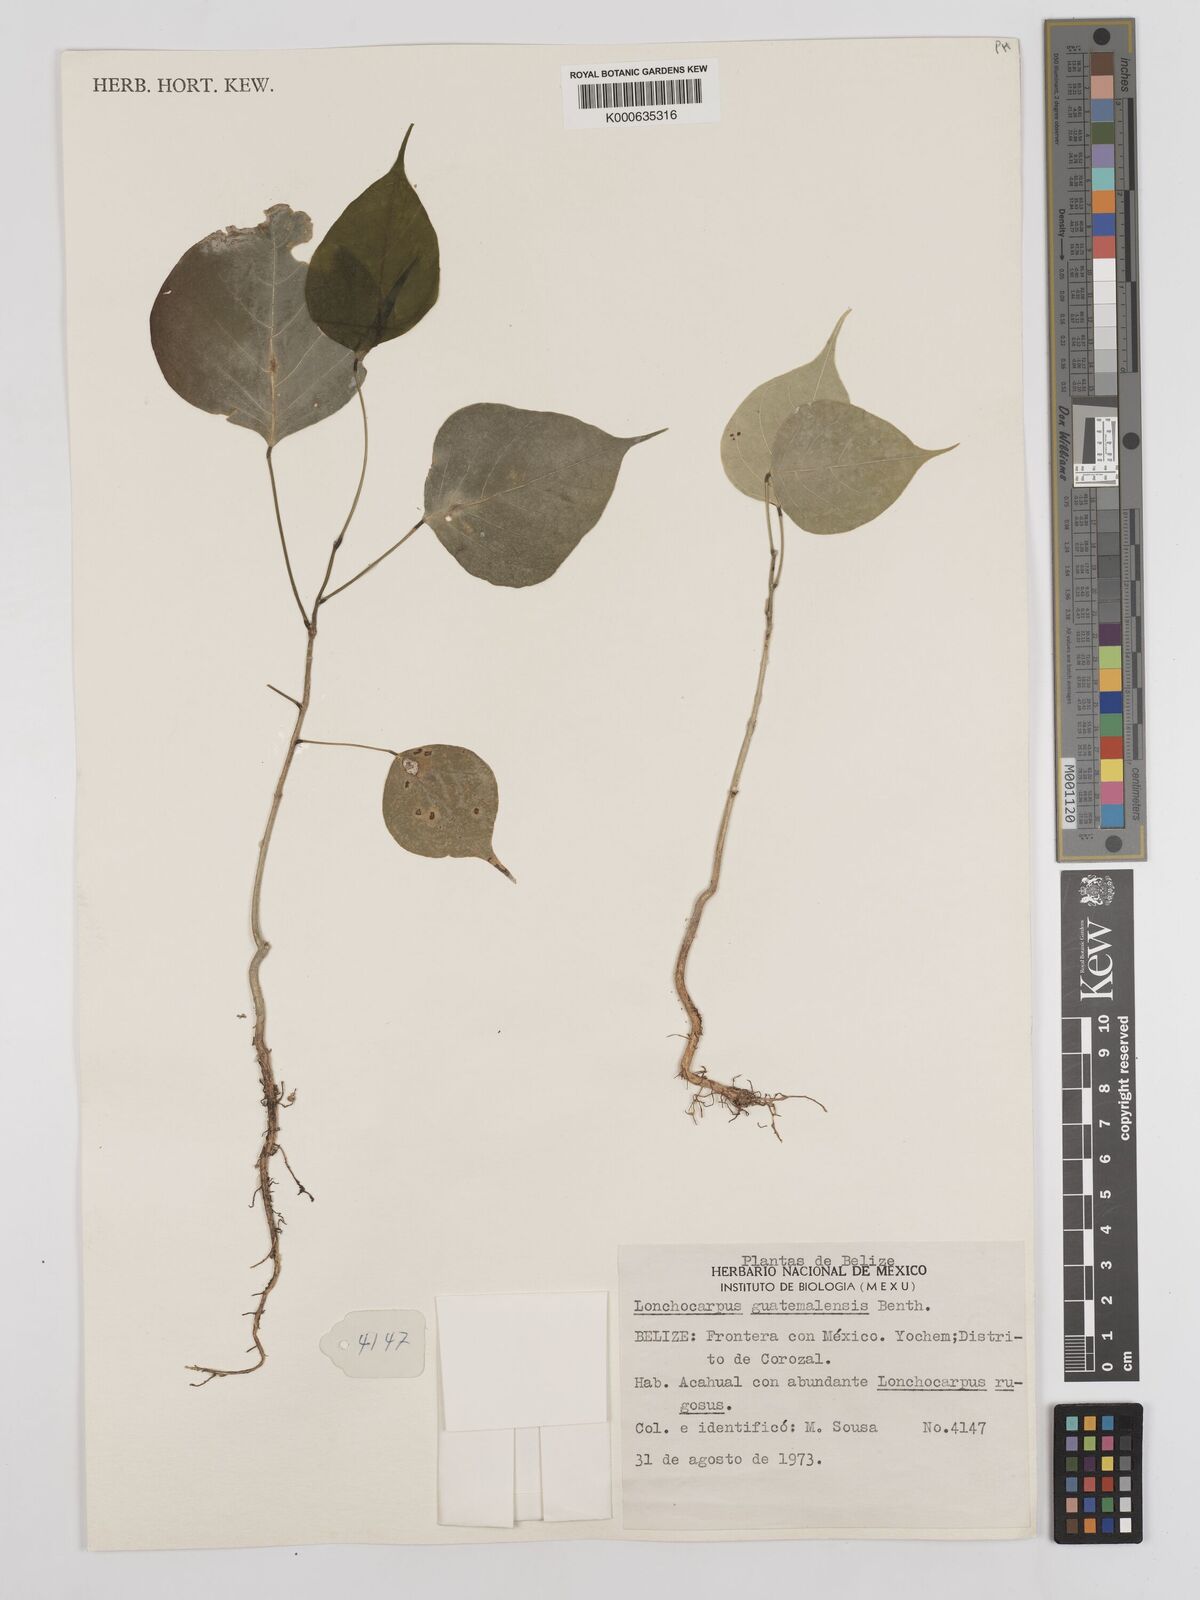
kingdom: Plantae
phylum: Tracheophyta
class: Magnoliopsida
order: Fabales
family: Fabaceae
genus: Lonchocarpus
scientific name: Lonchocarpus guatemalensis
